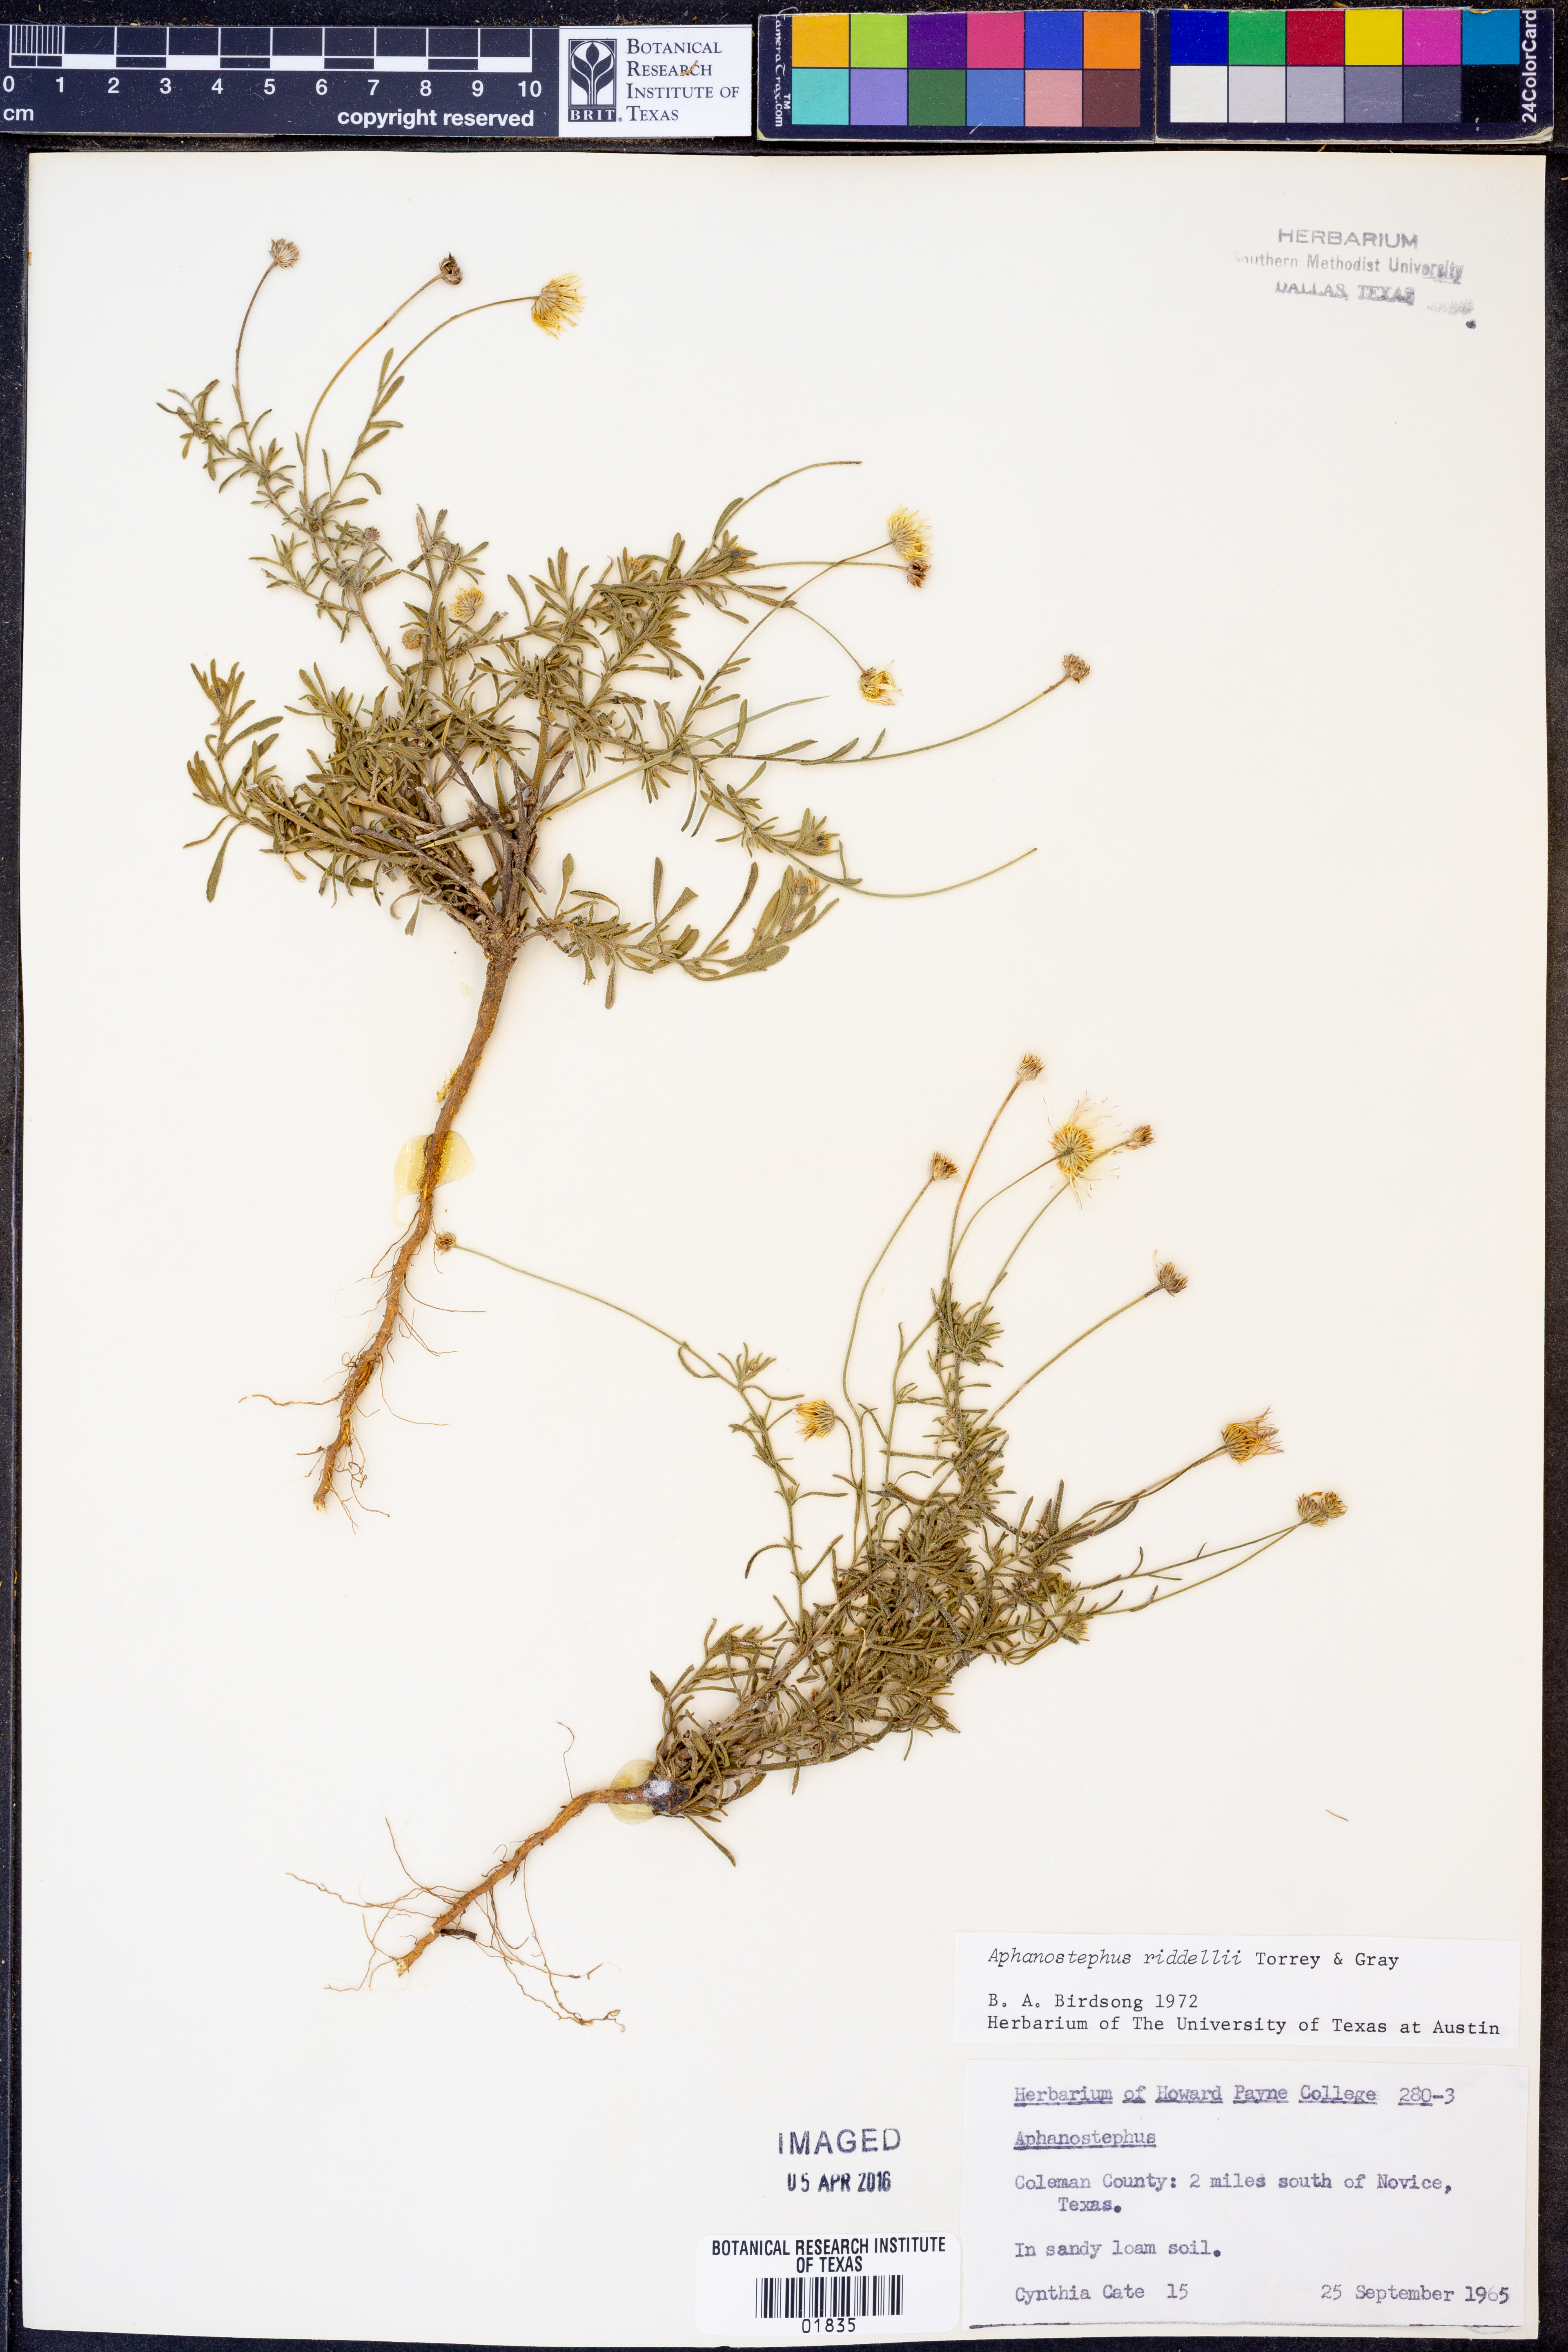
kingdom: Plantae
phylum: Tracheophyta
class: Magnoliopsida
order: Asterales
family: Asteraceae
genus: Aphanostephus
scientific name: Aphanostephus riddellii
